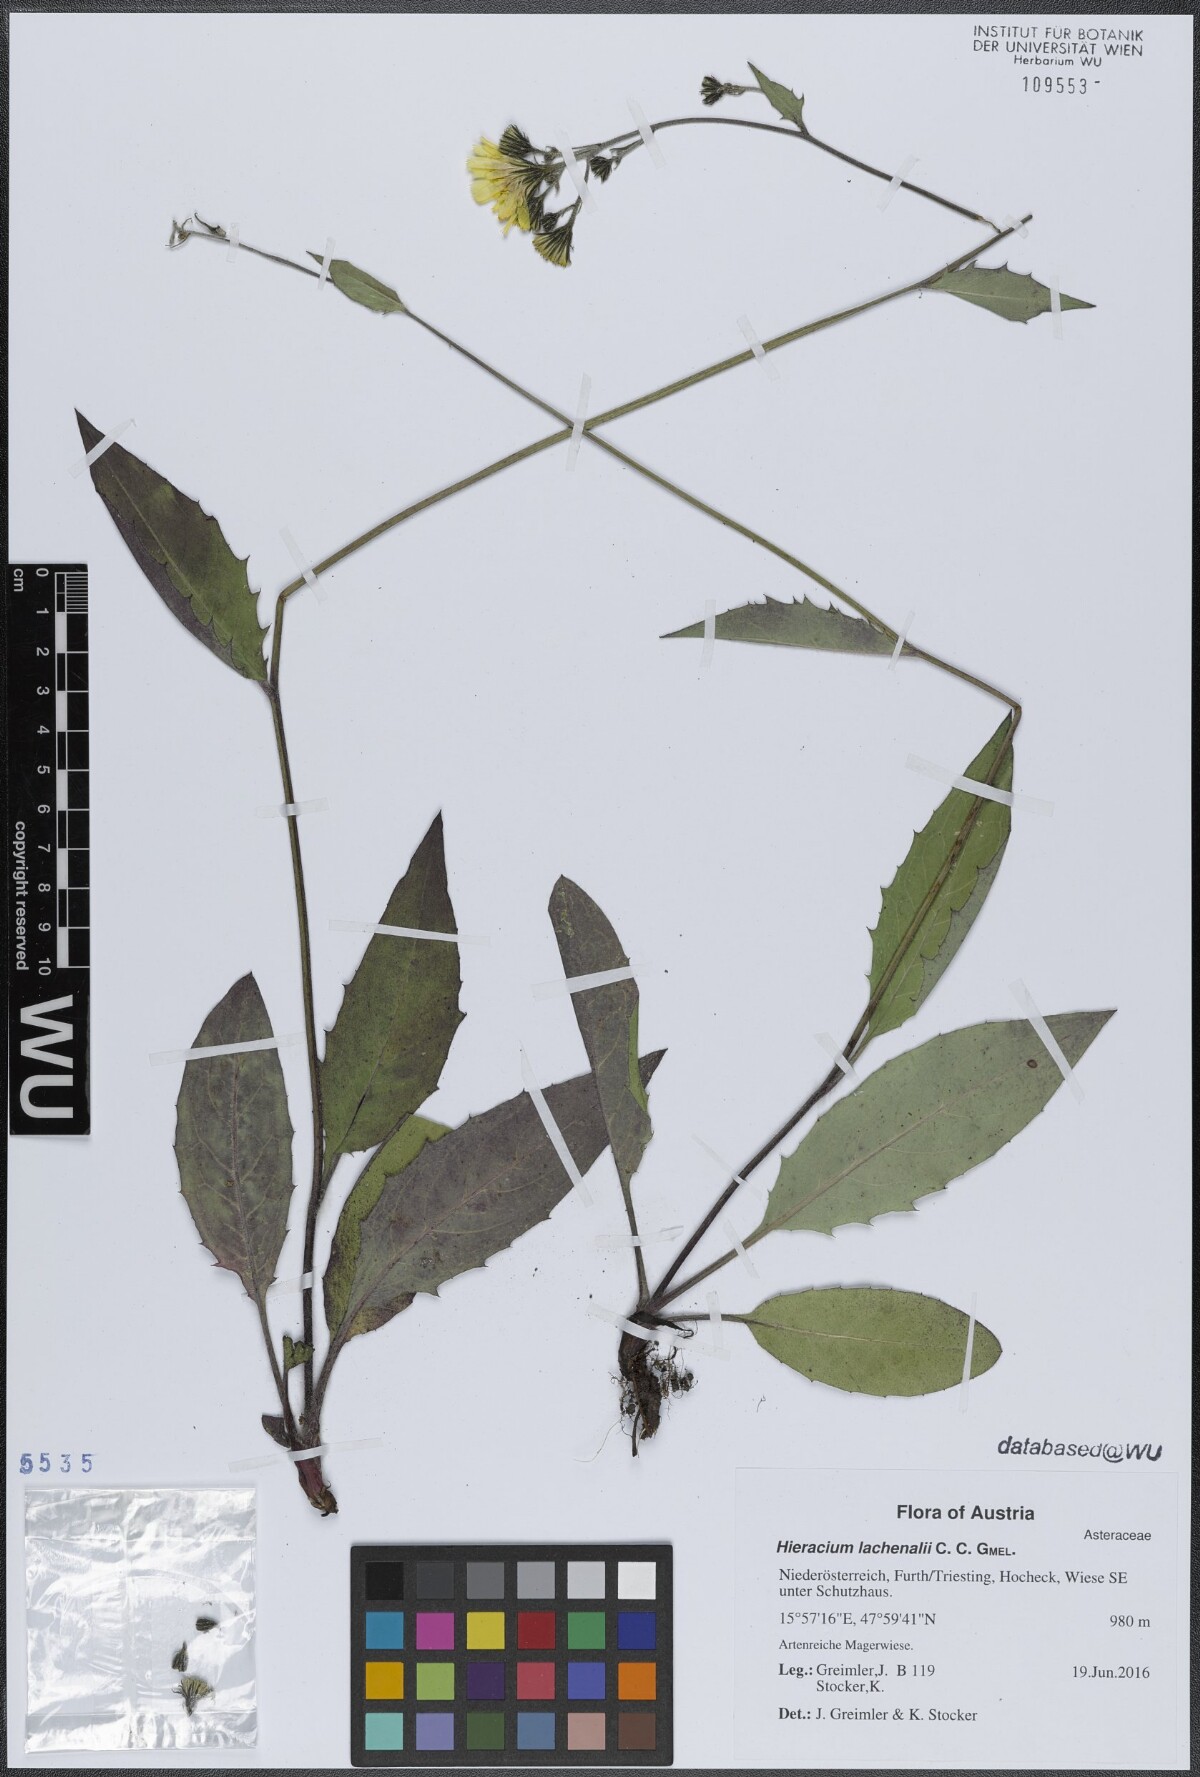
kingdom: Plantae
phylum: Tracheophyta
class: Magnoliopsida
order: Asterales
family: Asteraceae
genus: Hieracium
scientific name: Hieracium lachenalii
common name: Common hawkweed
